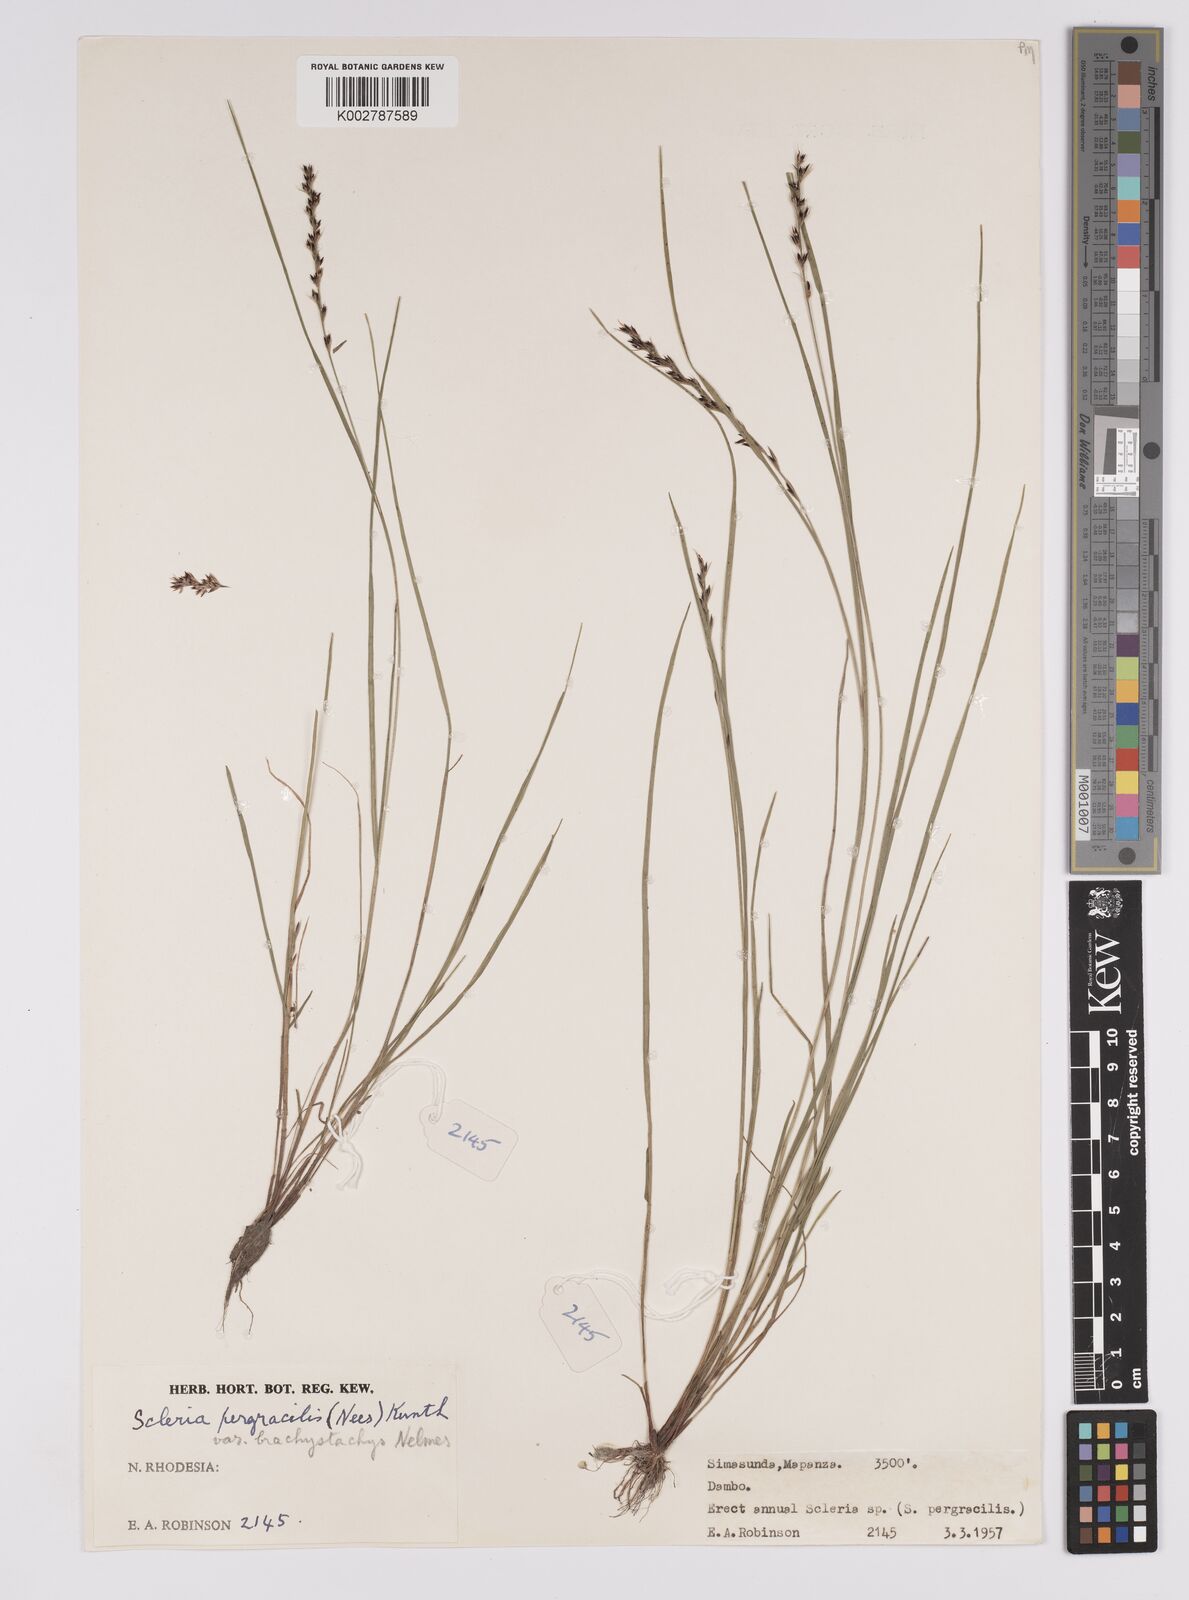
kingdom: Plantae
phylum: Tracheophyta
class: Liliopsida
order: Poales
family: Cyperaceae
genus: Scleria
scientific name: Scleria pergracilis
